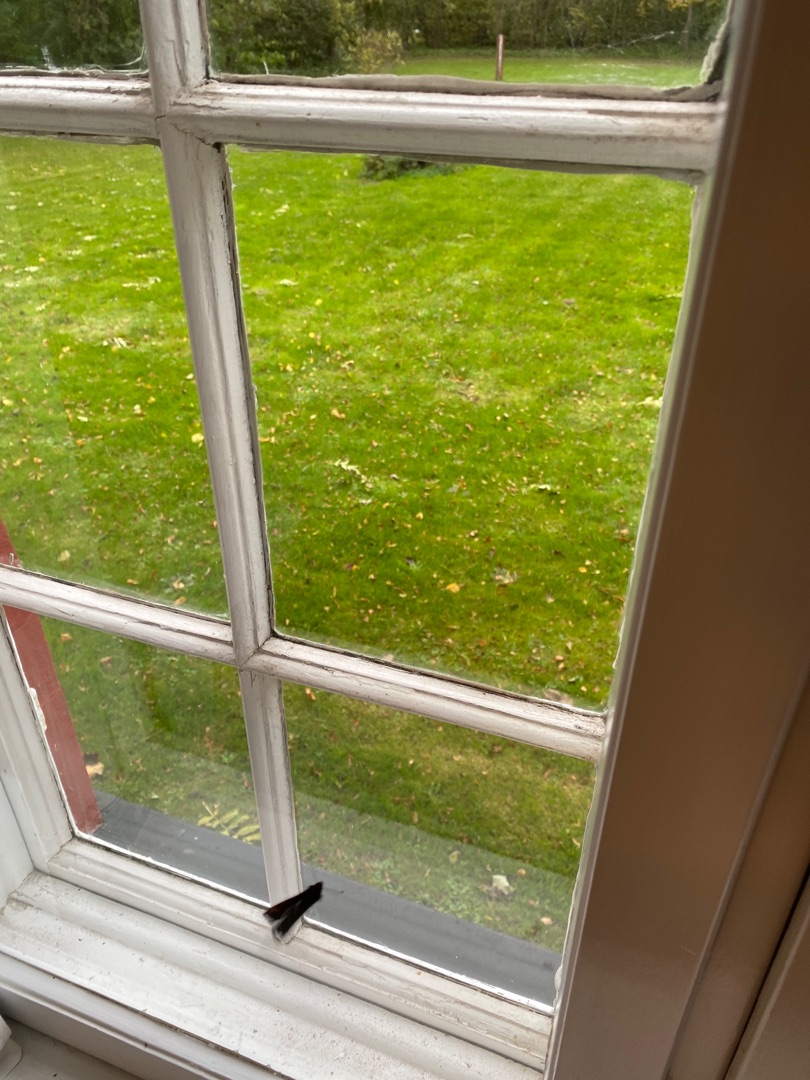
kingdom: Animalia
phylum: Arthropoda
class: Insecta
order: Lepidoptera
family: Nymphalidae
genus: Aglais
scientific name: Aglais io
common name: Dagpåfugleøje
